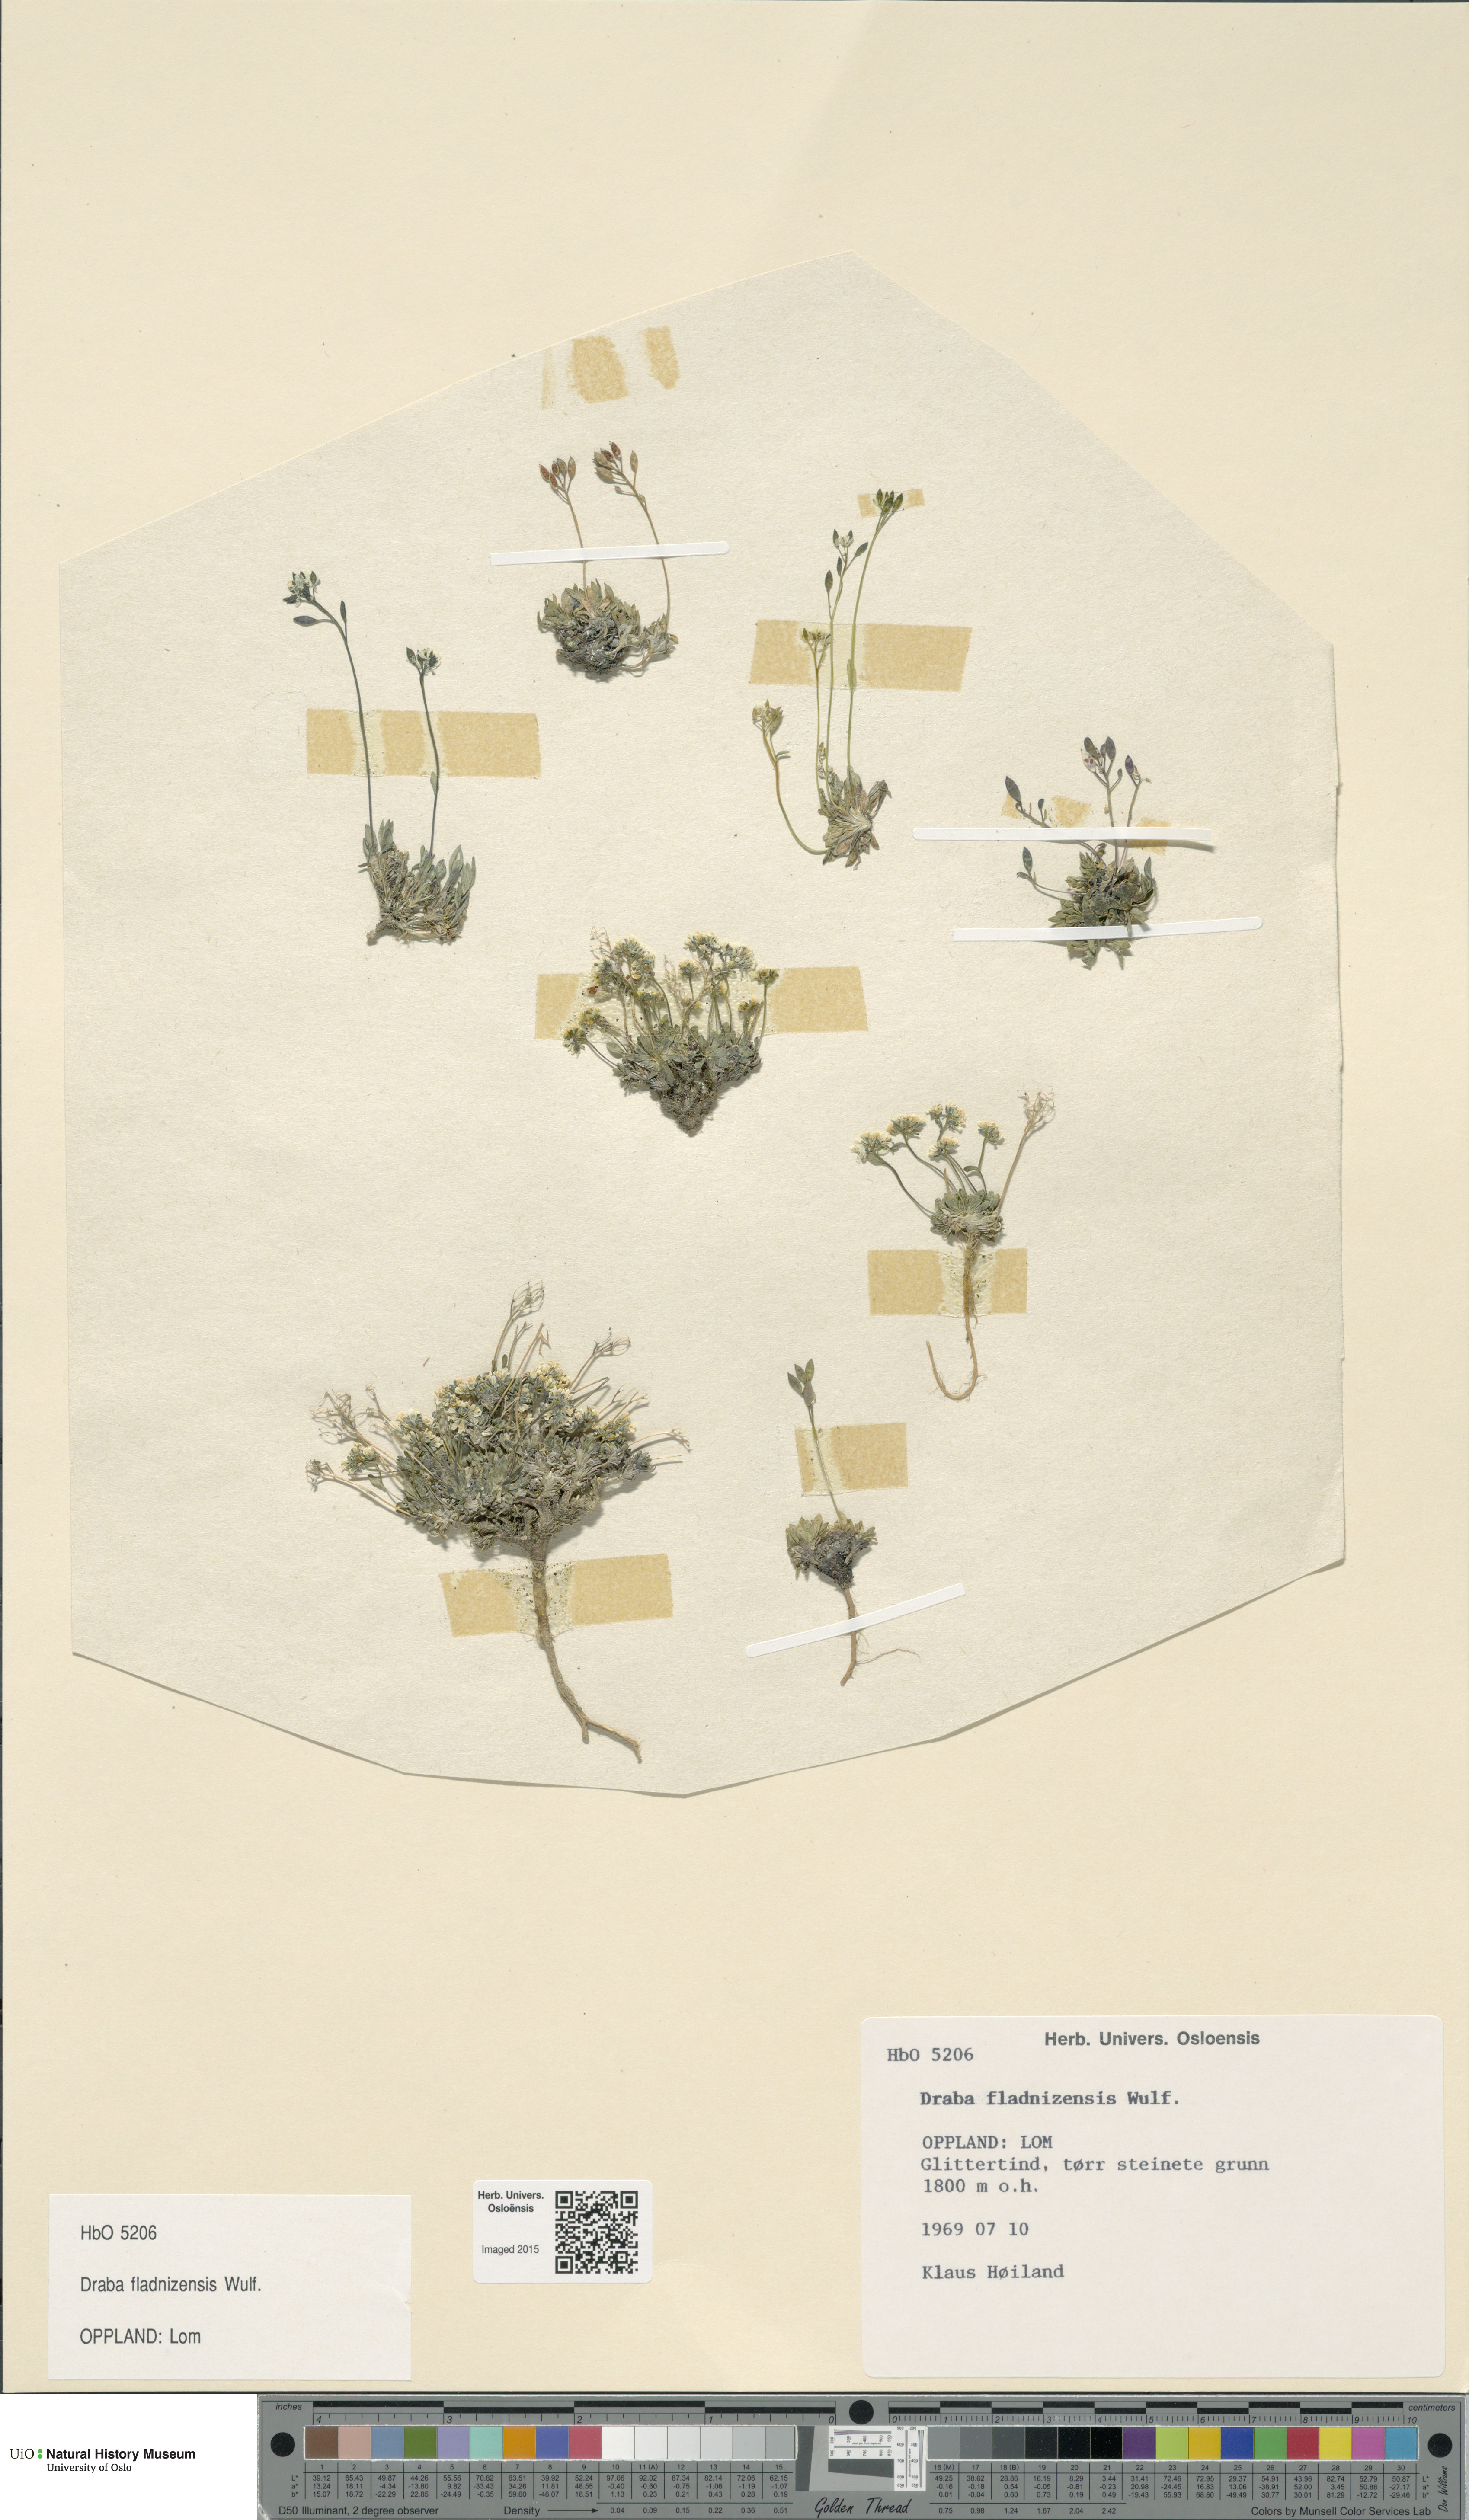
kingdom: Plantae
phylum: Tracheophyta
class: Magnoliopsida
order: Brassicales
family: Brassicaceae
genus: Draba
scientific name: Draba fladnizensis
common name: Austrian draba
